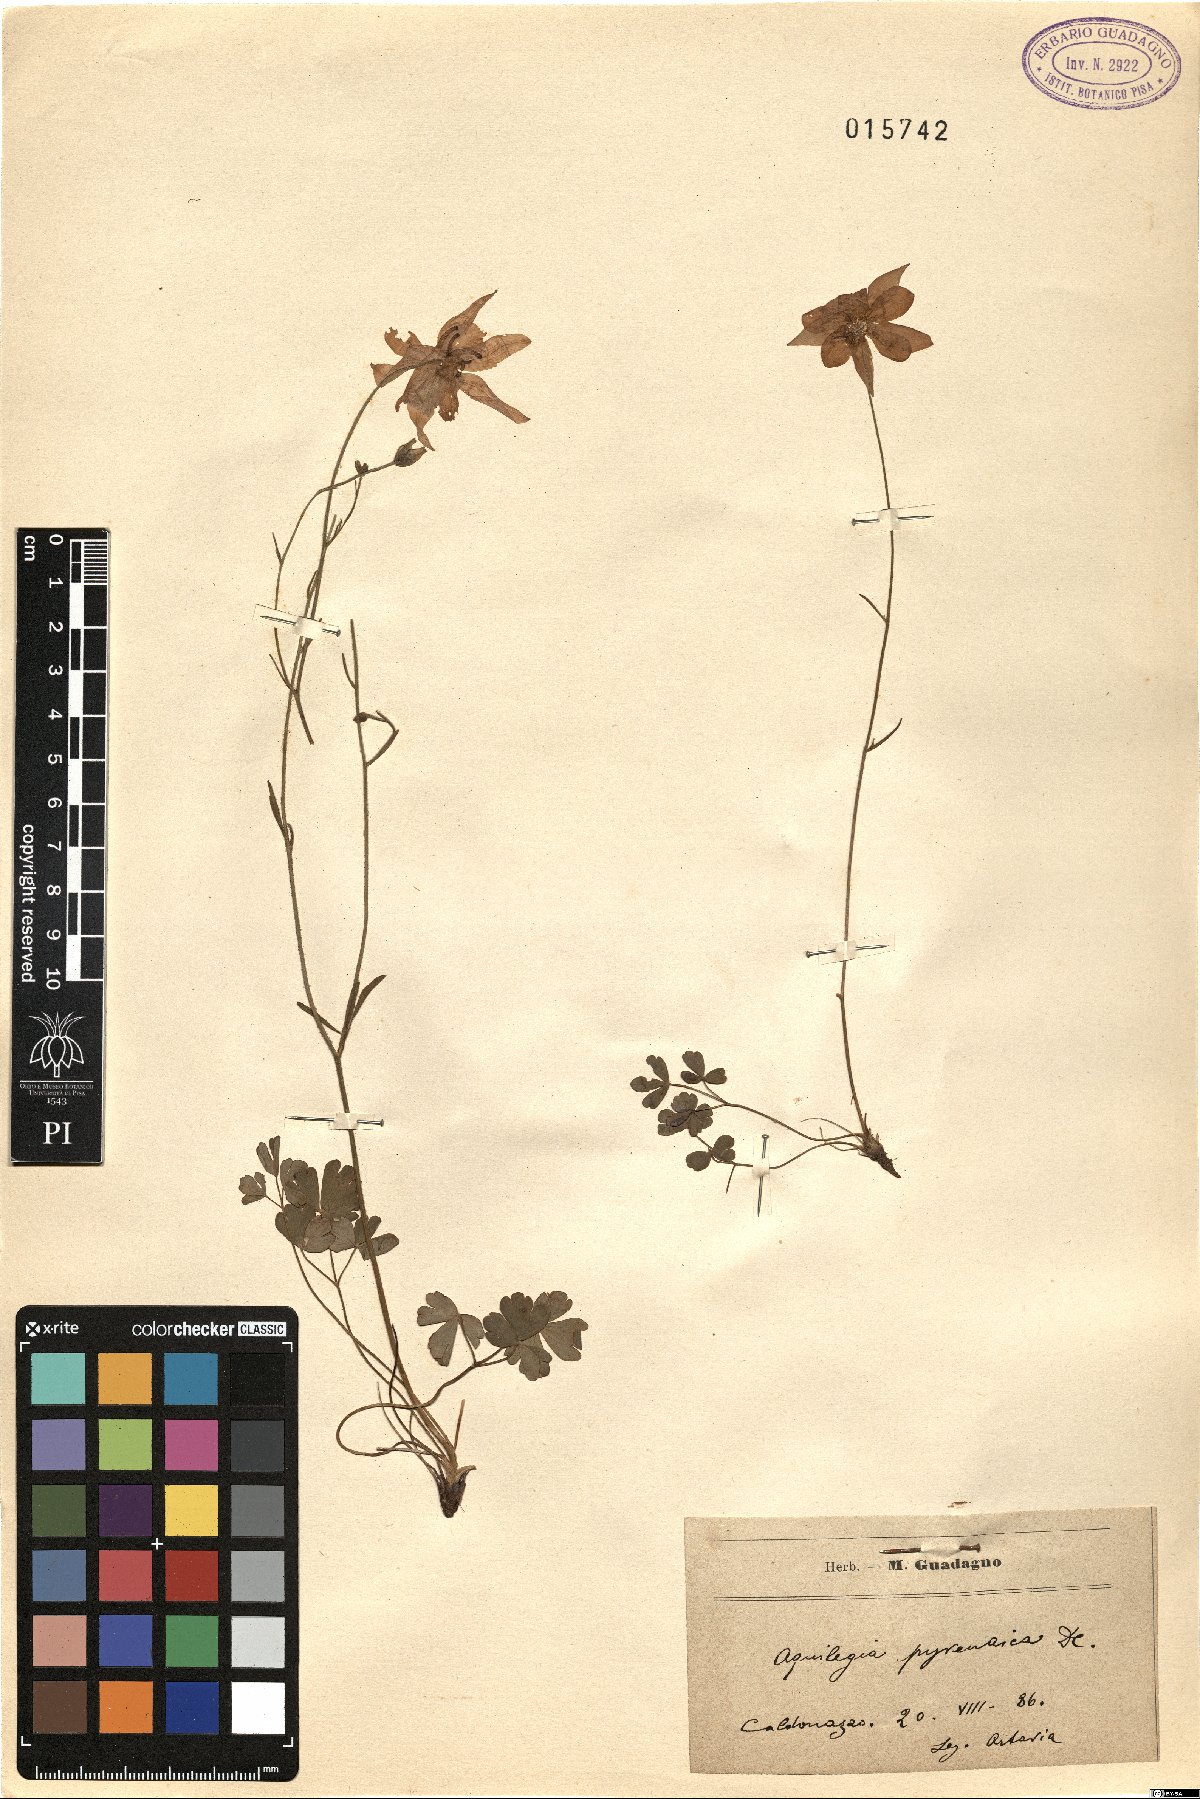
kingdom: Plantae
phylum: Tracheophyta
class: Magnoliopsida
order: Ranunculales
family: Ranunculaceae
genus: Aquilegia
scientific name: Aquilegia pyrenaica
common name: Pyrenean columbine
